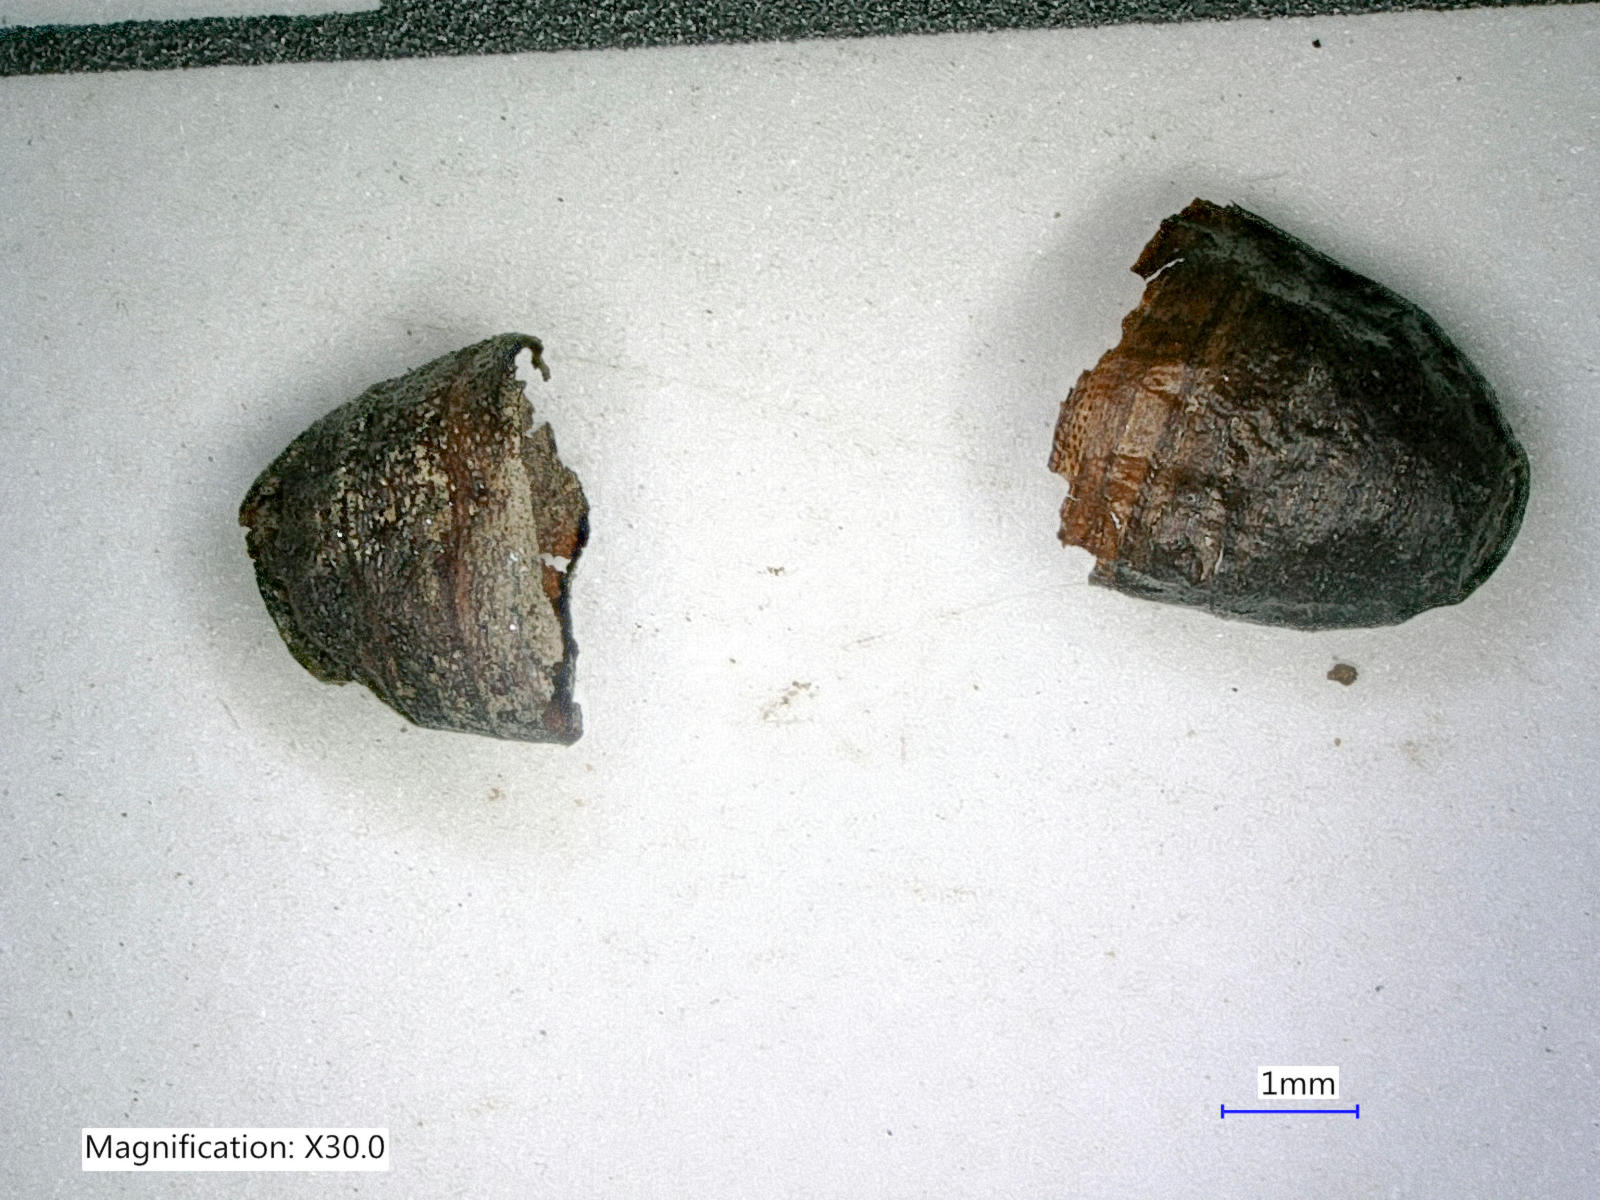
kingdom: Animalia
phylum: Arthropoda
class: Insecta
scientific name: Insecta
